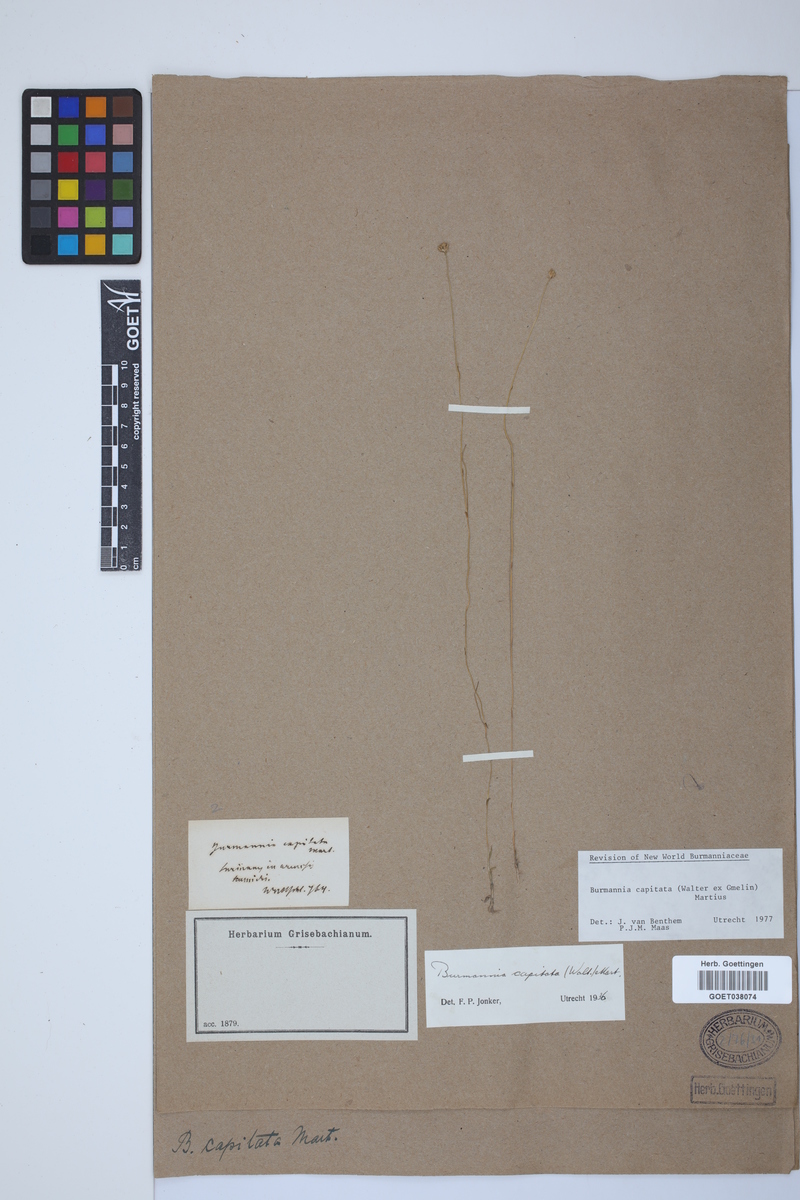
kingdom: Plantae
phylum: Tracheophyta
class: Liliopsida
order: Dioscoreales
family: Burmanniaceae
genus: Burmannia
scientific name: Burmannia capitata
